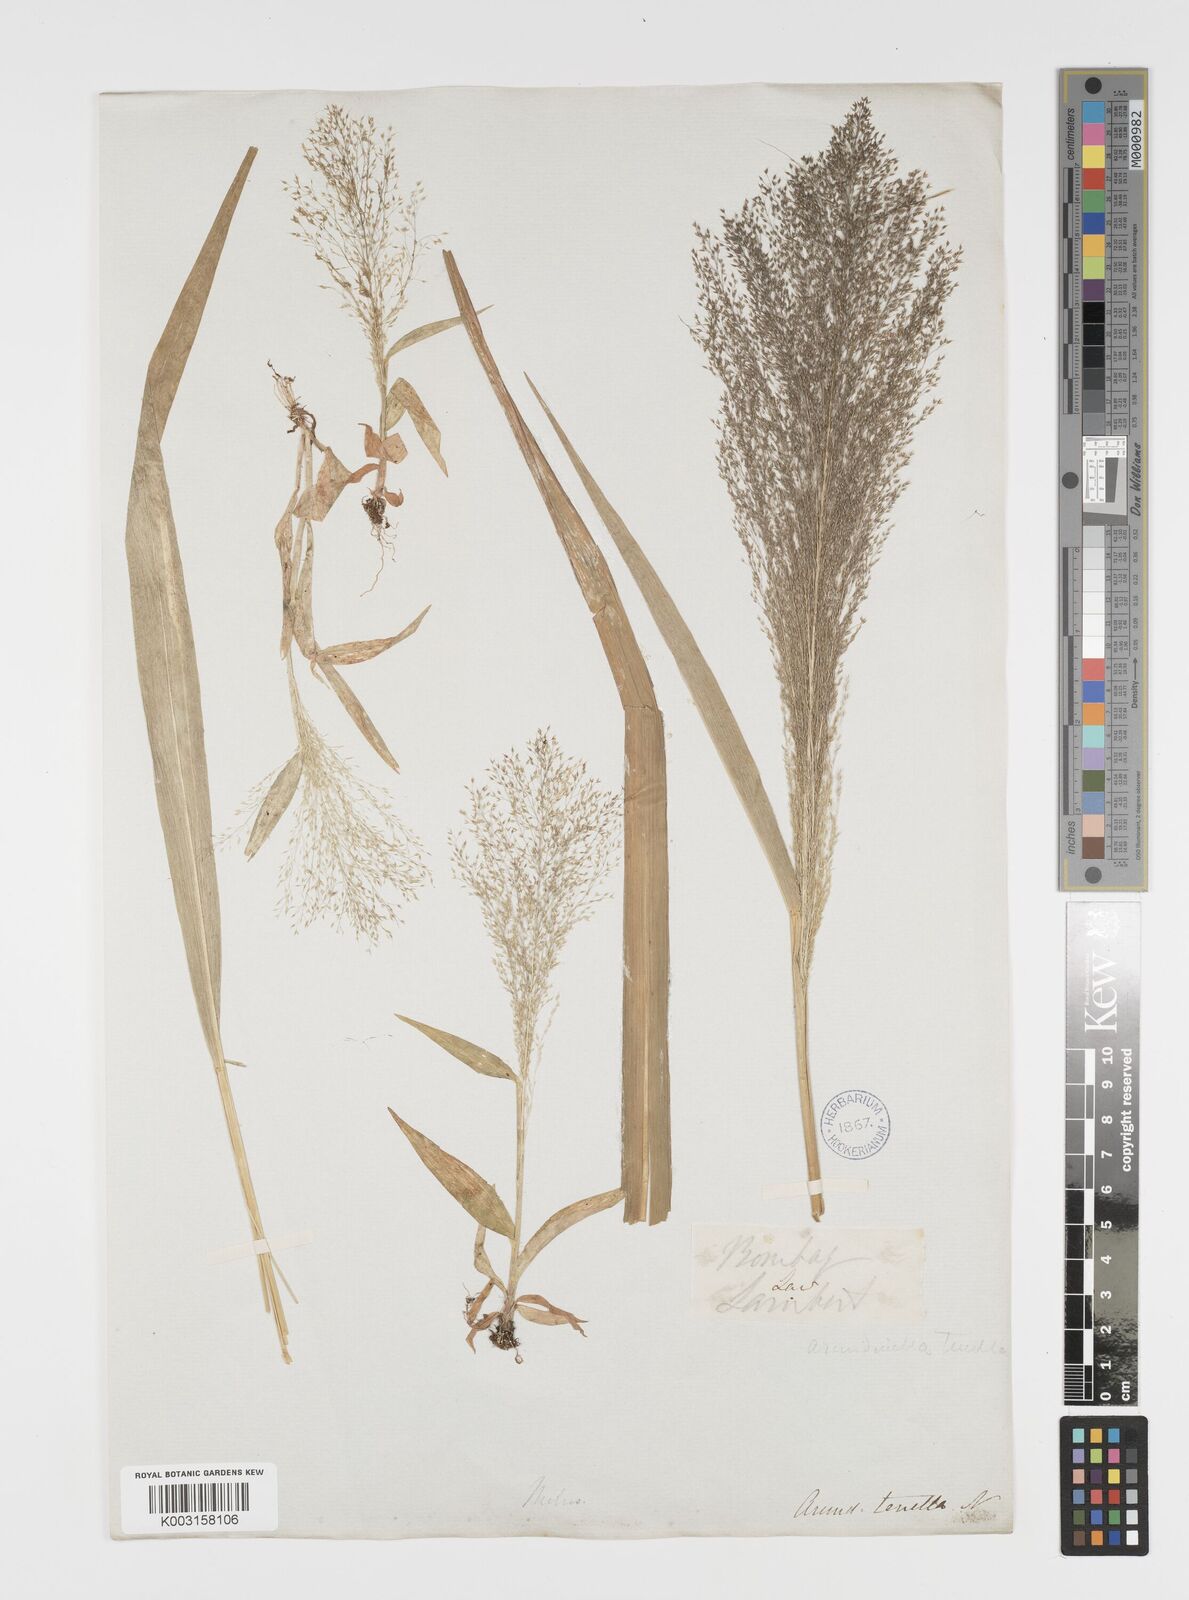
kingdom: Plantae
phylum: Tracheophyta
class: Liliopsida
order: Poales
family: Poaceae
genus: Arundinella
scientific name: Arundinella pumila
